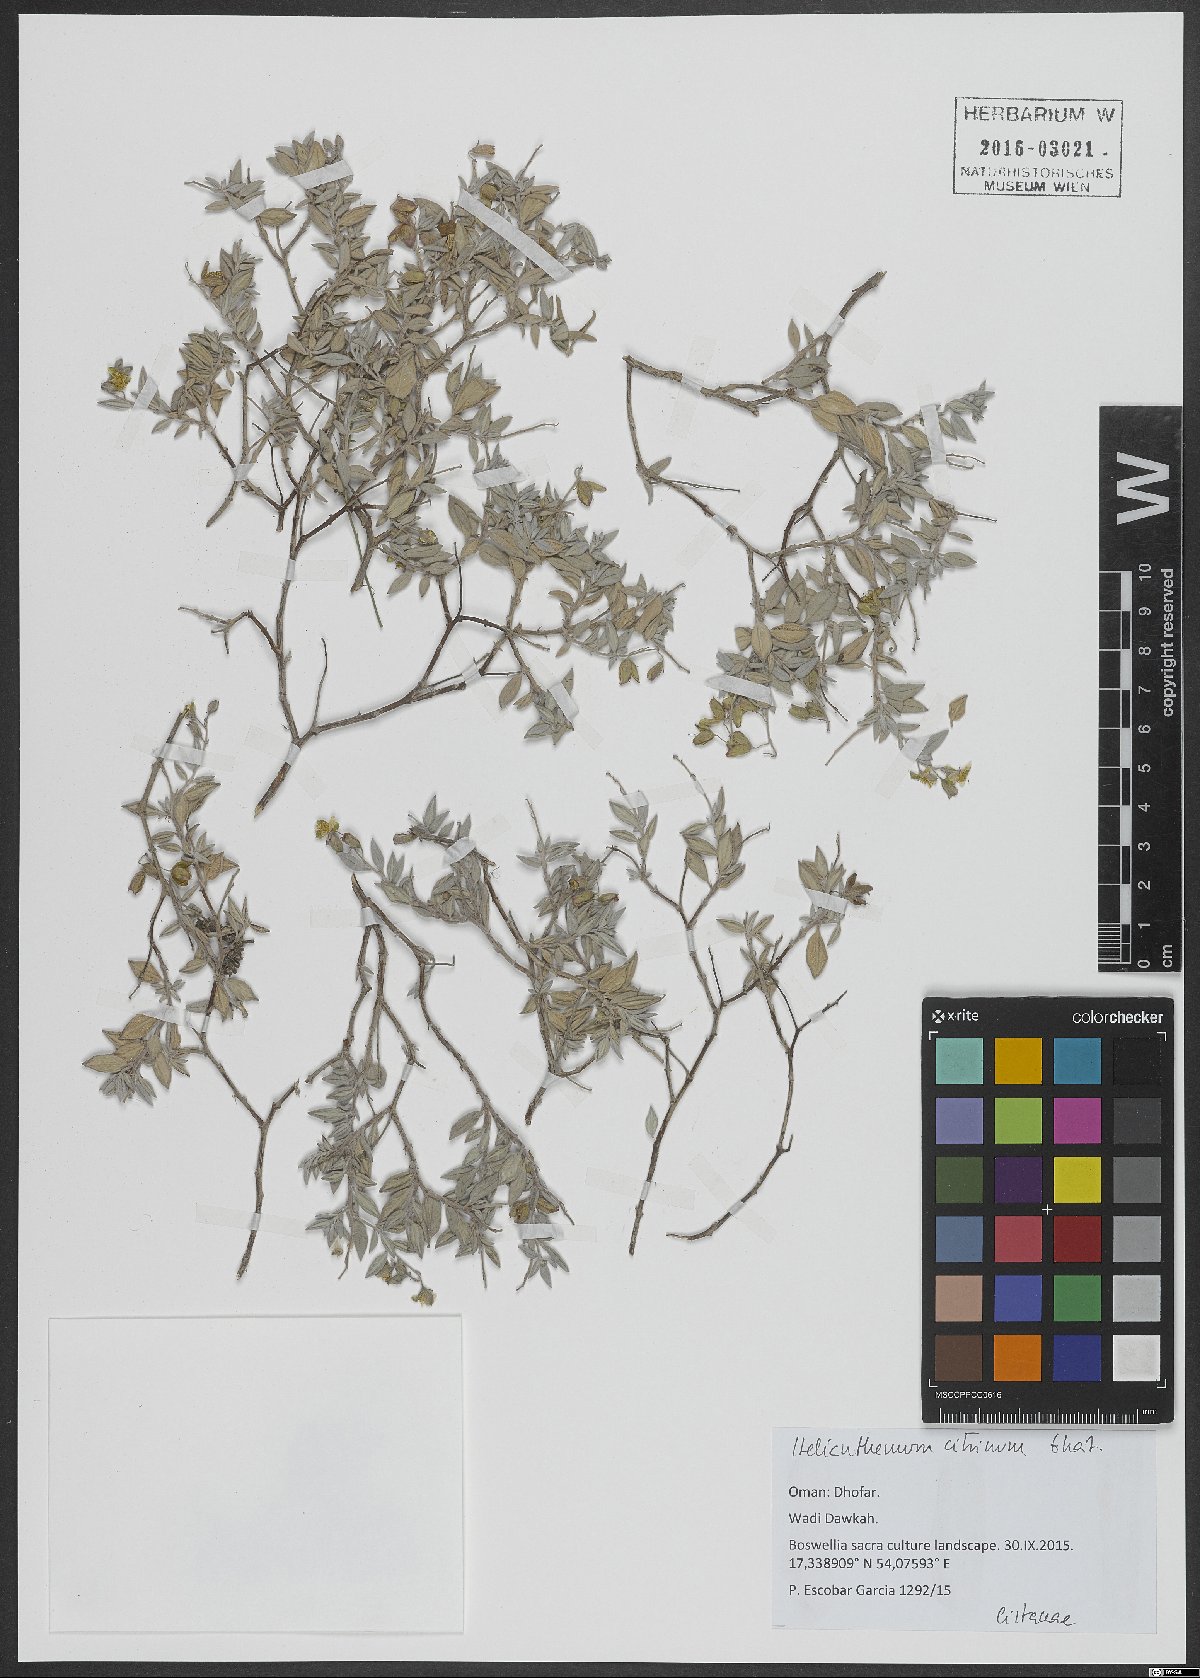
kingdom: Plantae
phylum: Tracheophyta
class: Magnoliopsida
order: Malvales
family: Cistaceae
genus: Helianthemum
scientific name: Helianthemum citrinum
